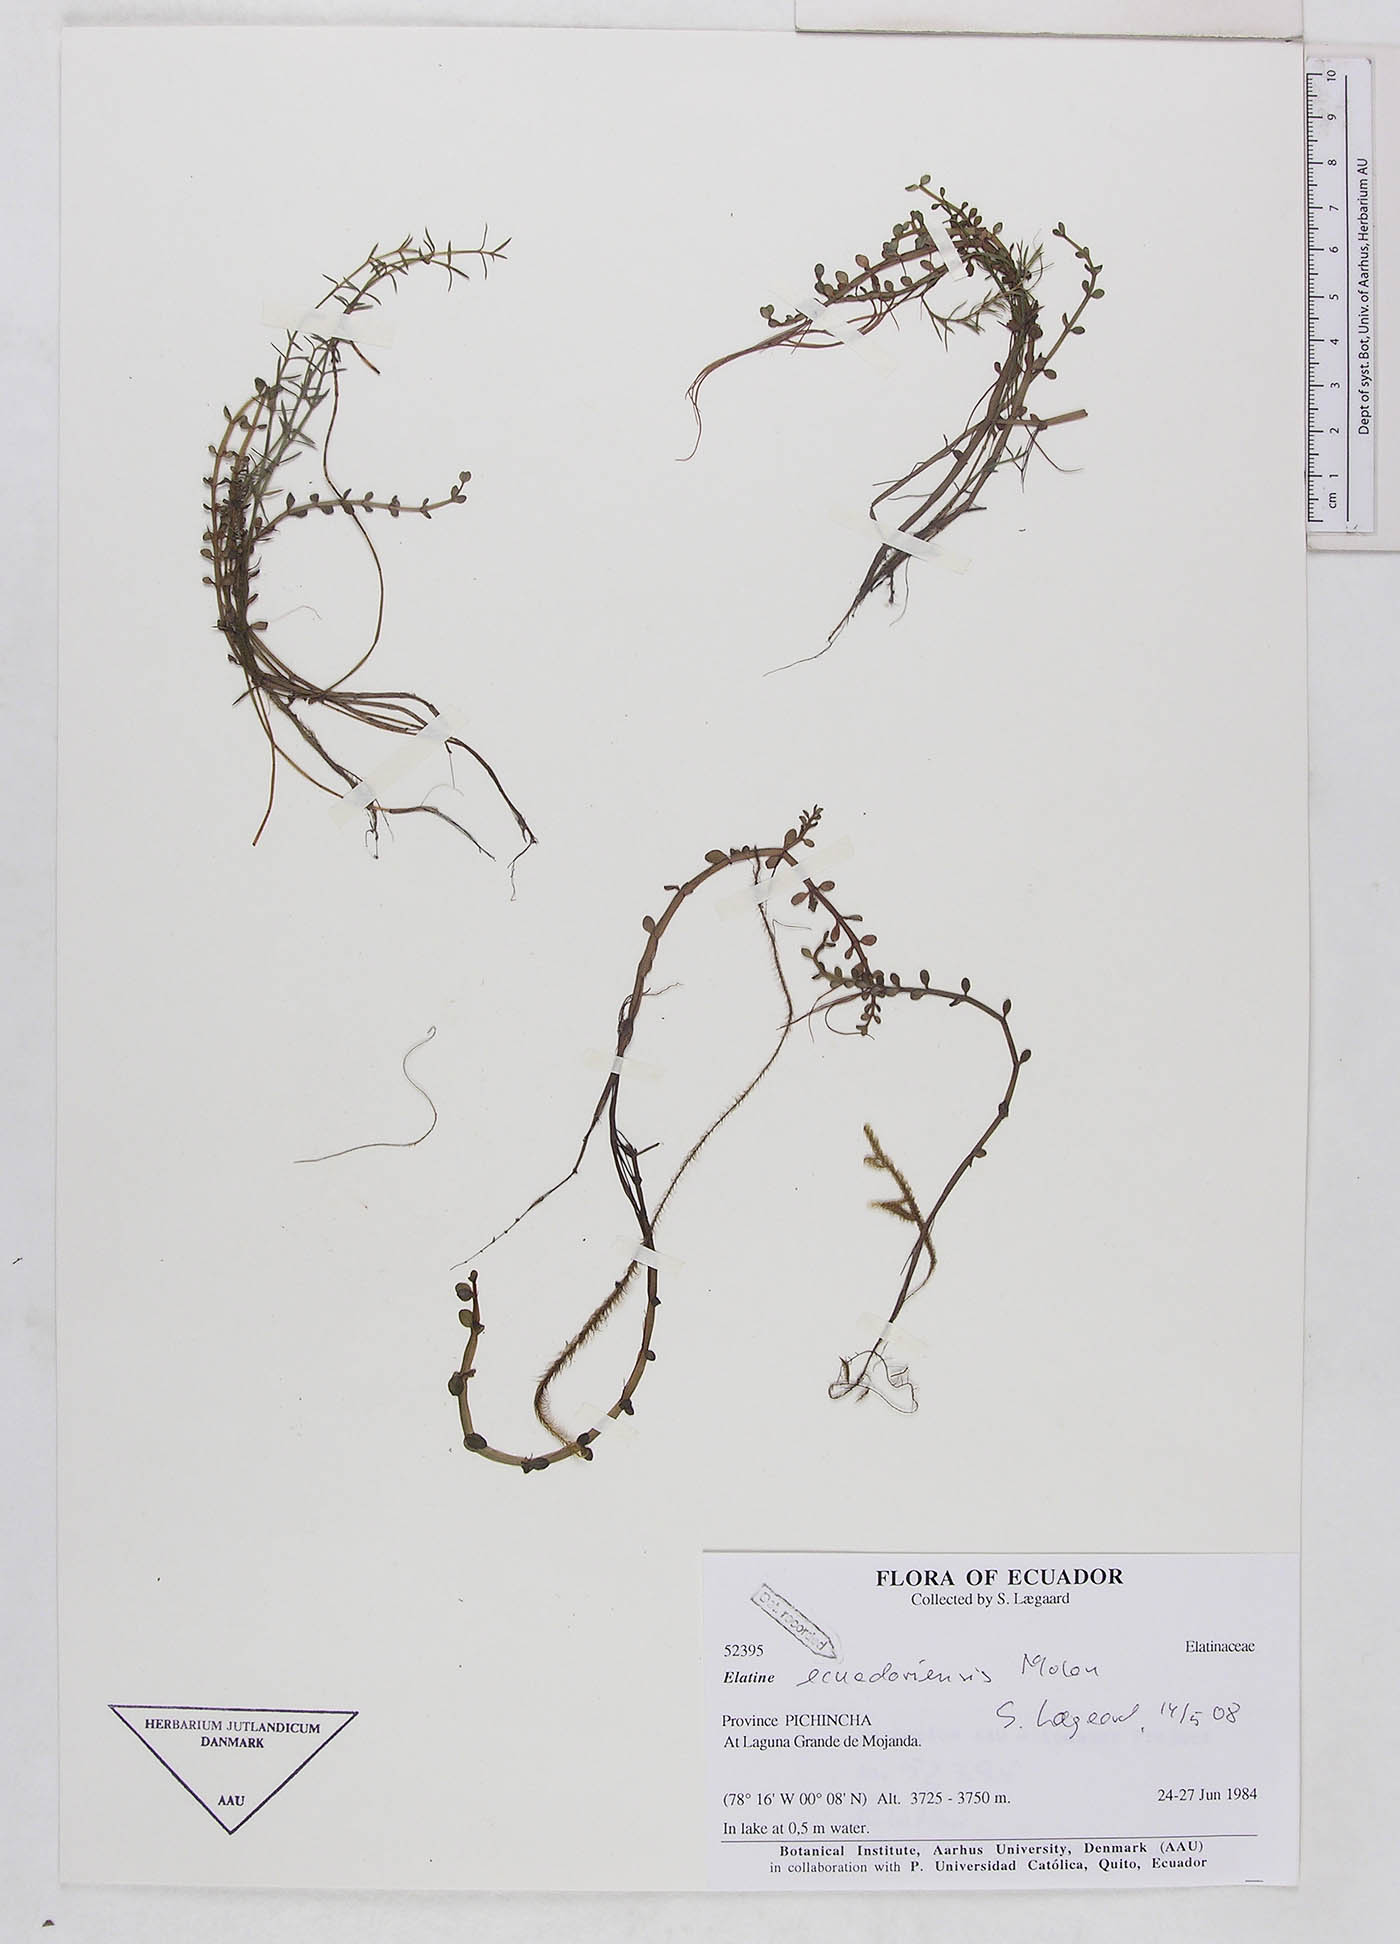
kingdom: Plantae
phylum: Tracheophyta
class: Magnoliopsida
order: Malpighiales
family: Elatinaceae
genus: Elatine
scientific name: Elatine ecuadoriensis
